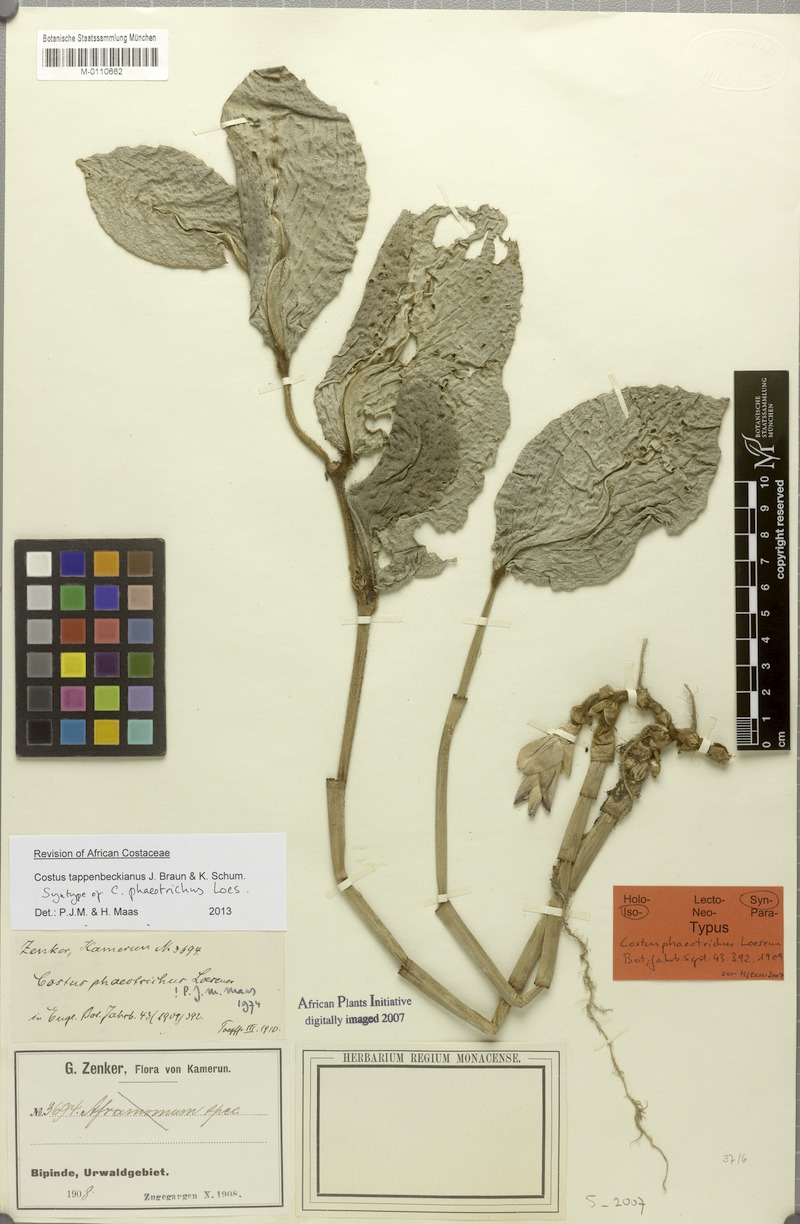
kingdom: Plantae
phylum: Tracheophyta
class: Liliopsida
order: Zingiberales
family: Costaceae
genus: Costus
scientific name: Costus tappenbeckianus
